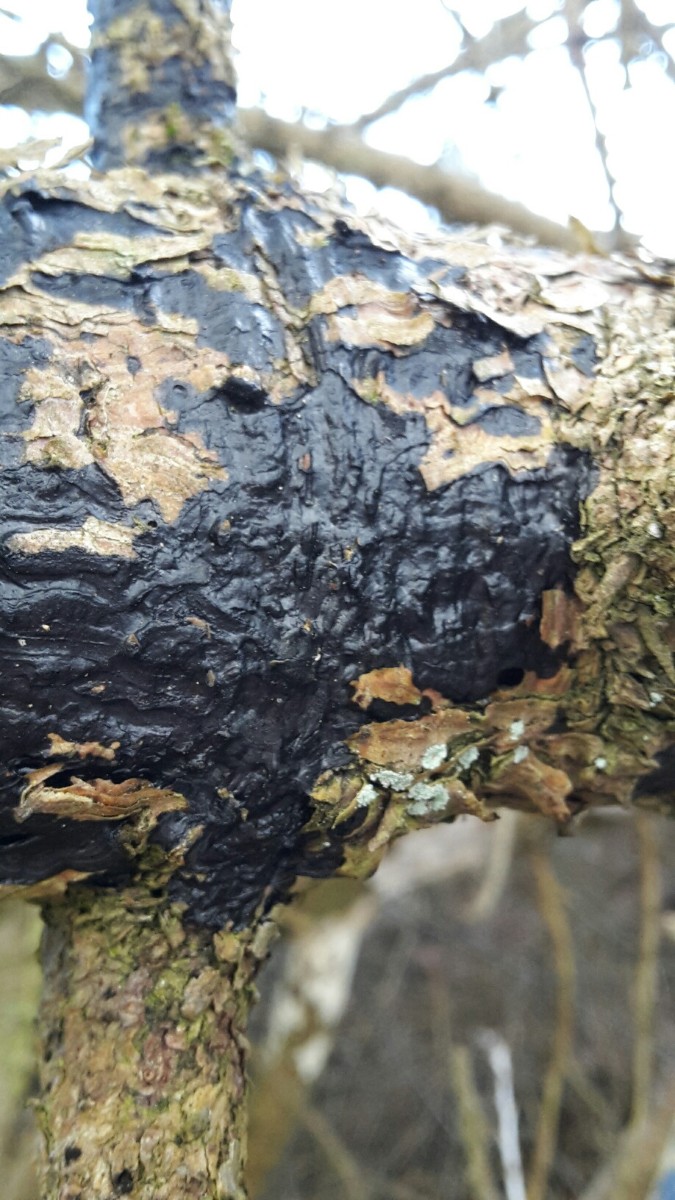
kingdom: Fungi
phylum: Basidiomycota
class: Agaricomycetes
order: Auriculariales
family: Auriculariaceae
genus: Exidia
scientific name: Exidia pithya
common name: gran-bævretop
